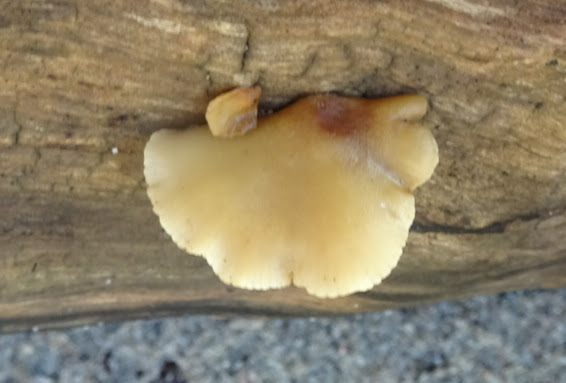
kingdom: Fungi
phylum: Basidiomycota
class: Agaricomycetes
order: Agaricales
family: Crepidotaceae
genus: Crepidotus
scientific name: Crepidotus mollis
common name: blød muslingesvamp
